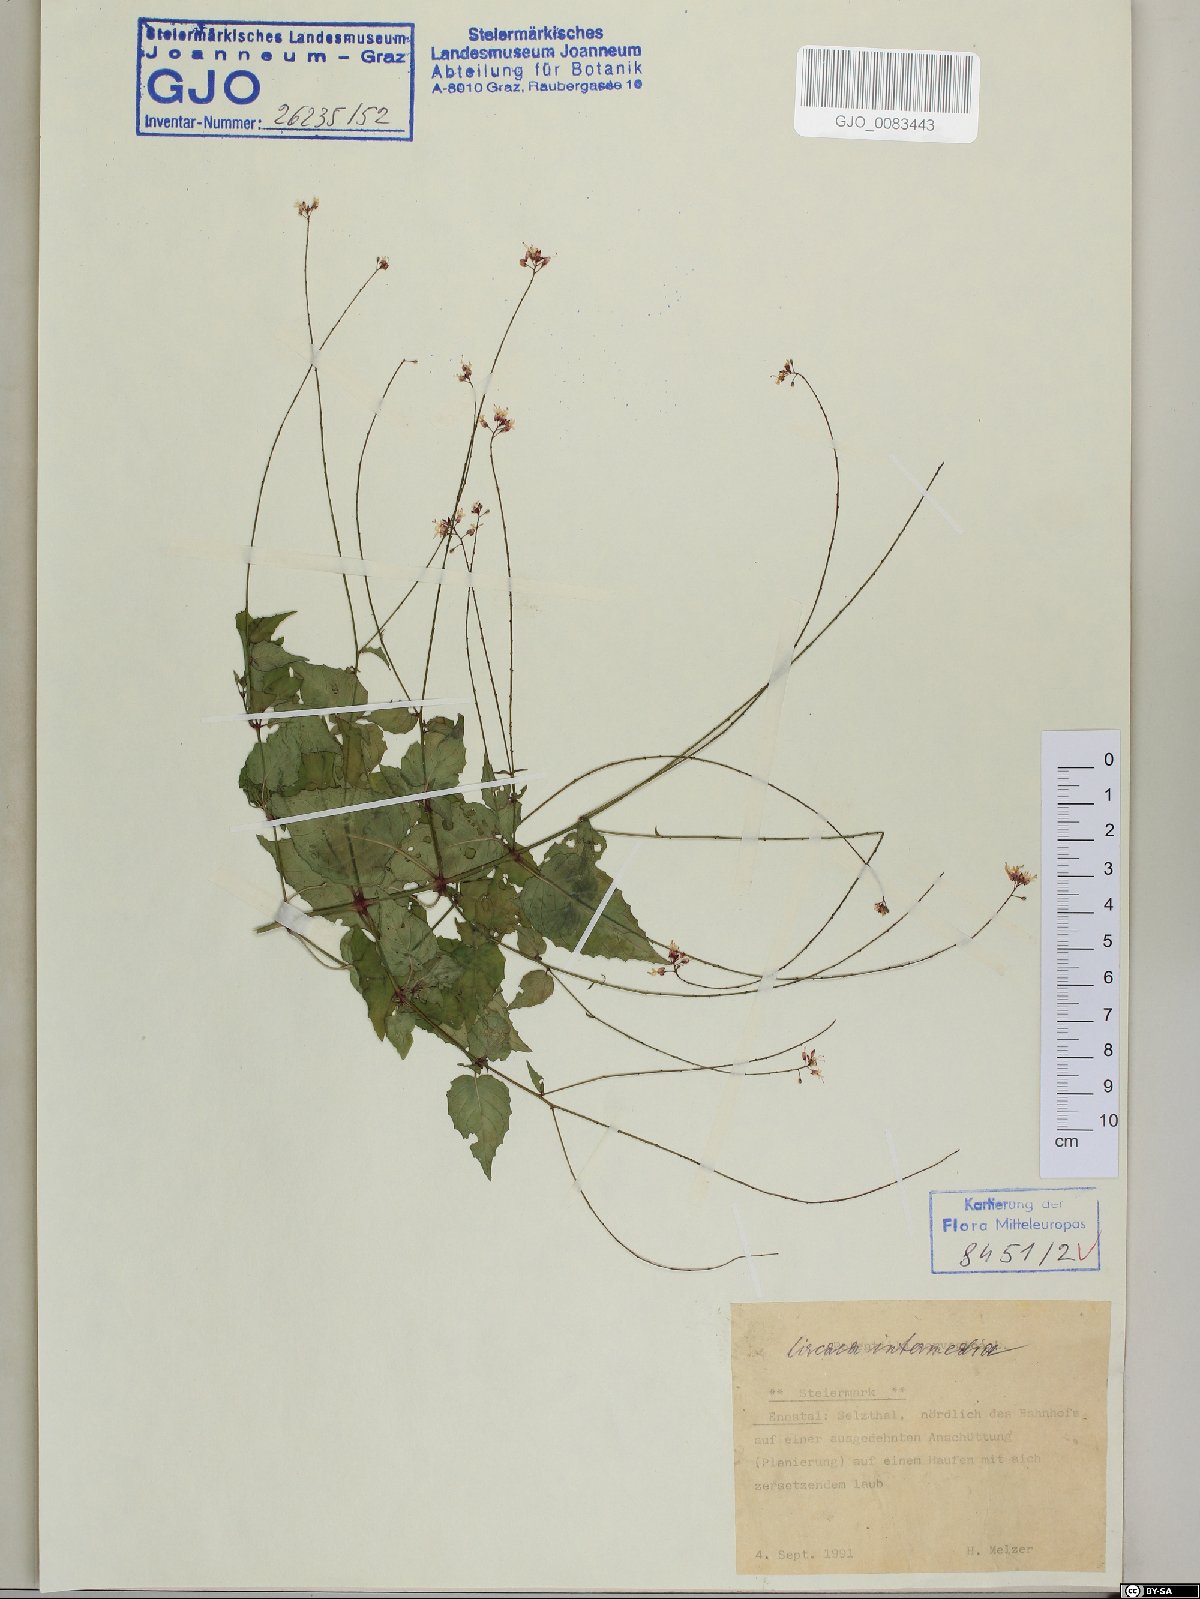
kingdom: Plantae
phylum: Tracheophyta
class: Magnoliopsida
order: Myrtales
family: Onagraceae
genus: Circaea
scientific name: Circaea intermedia
